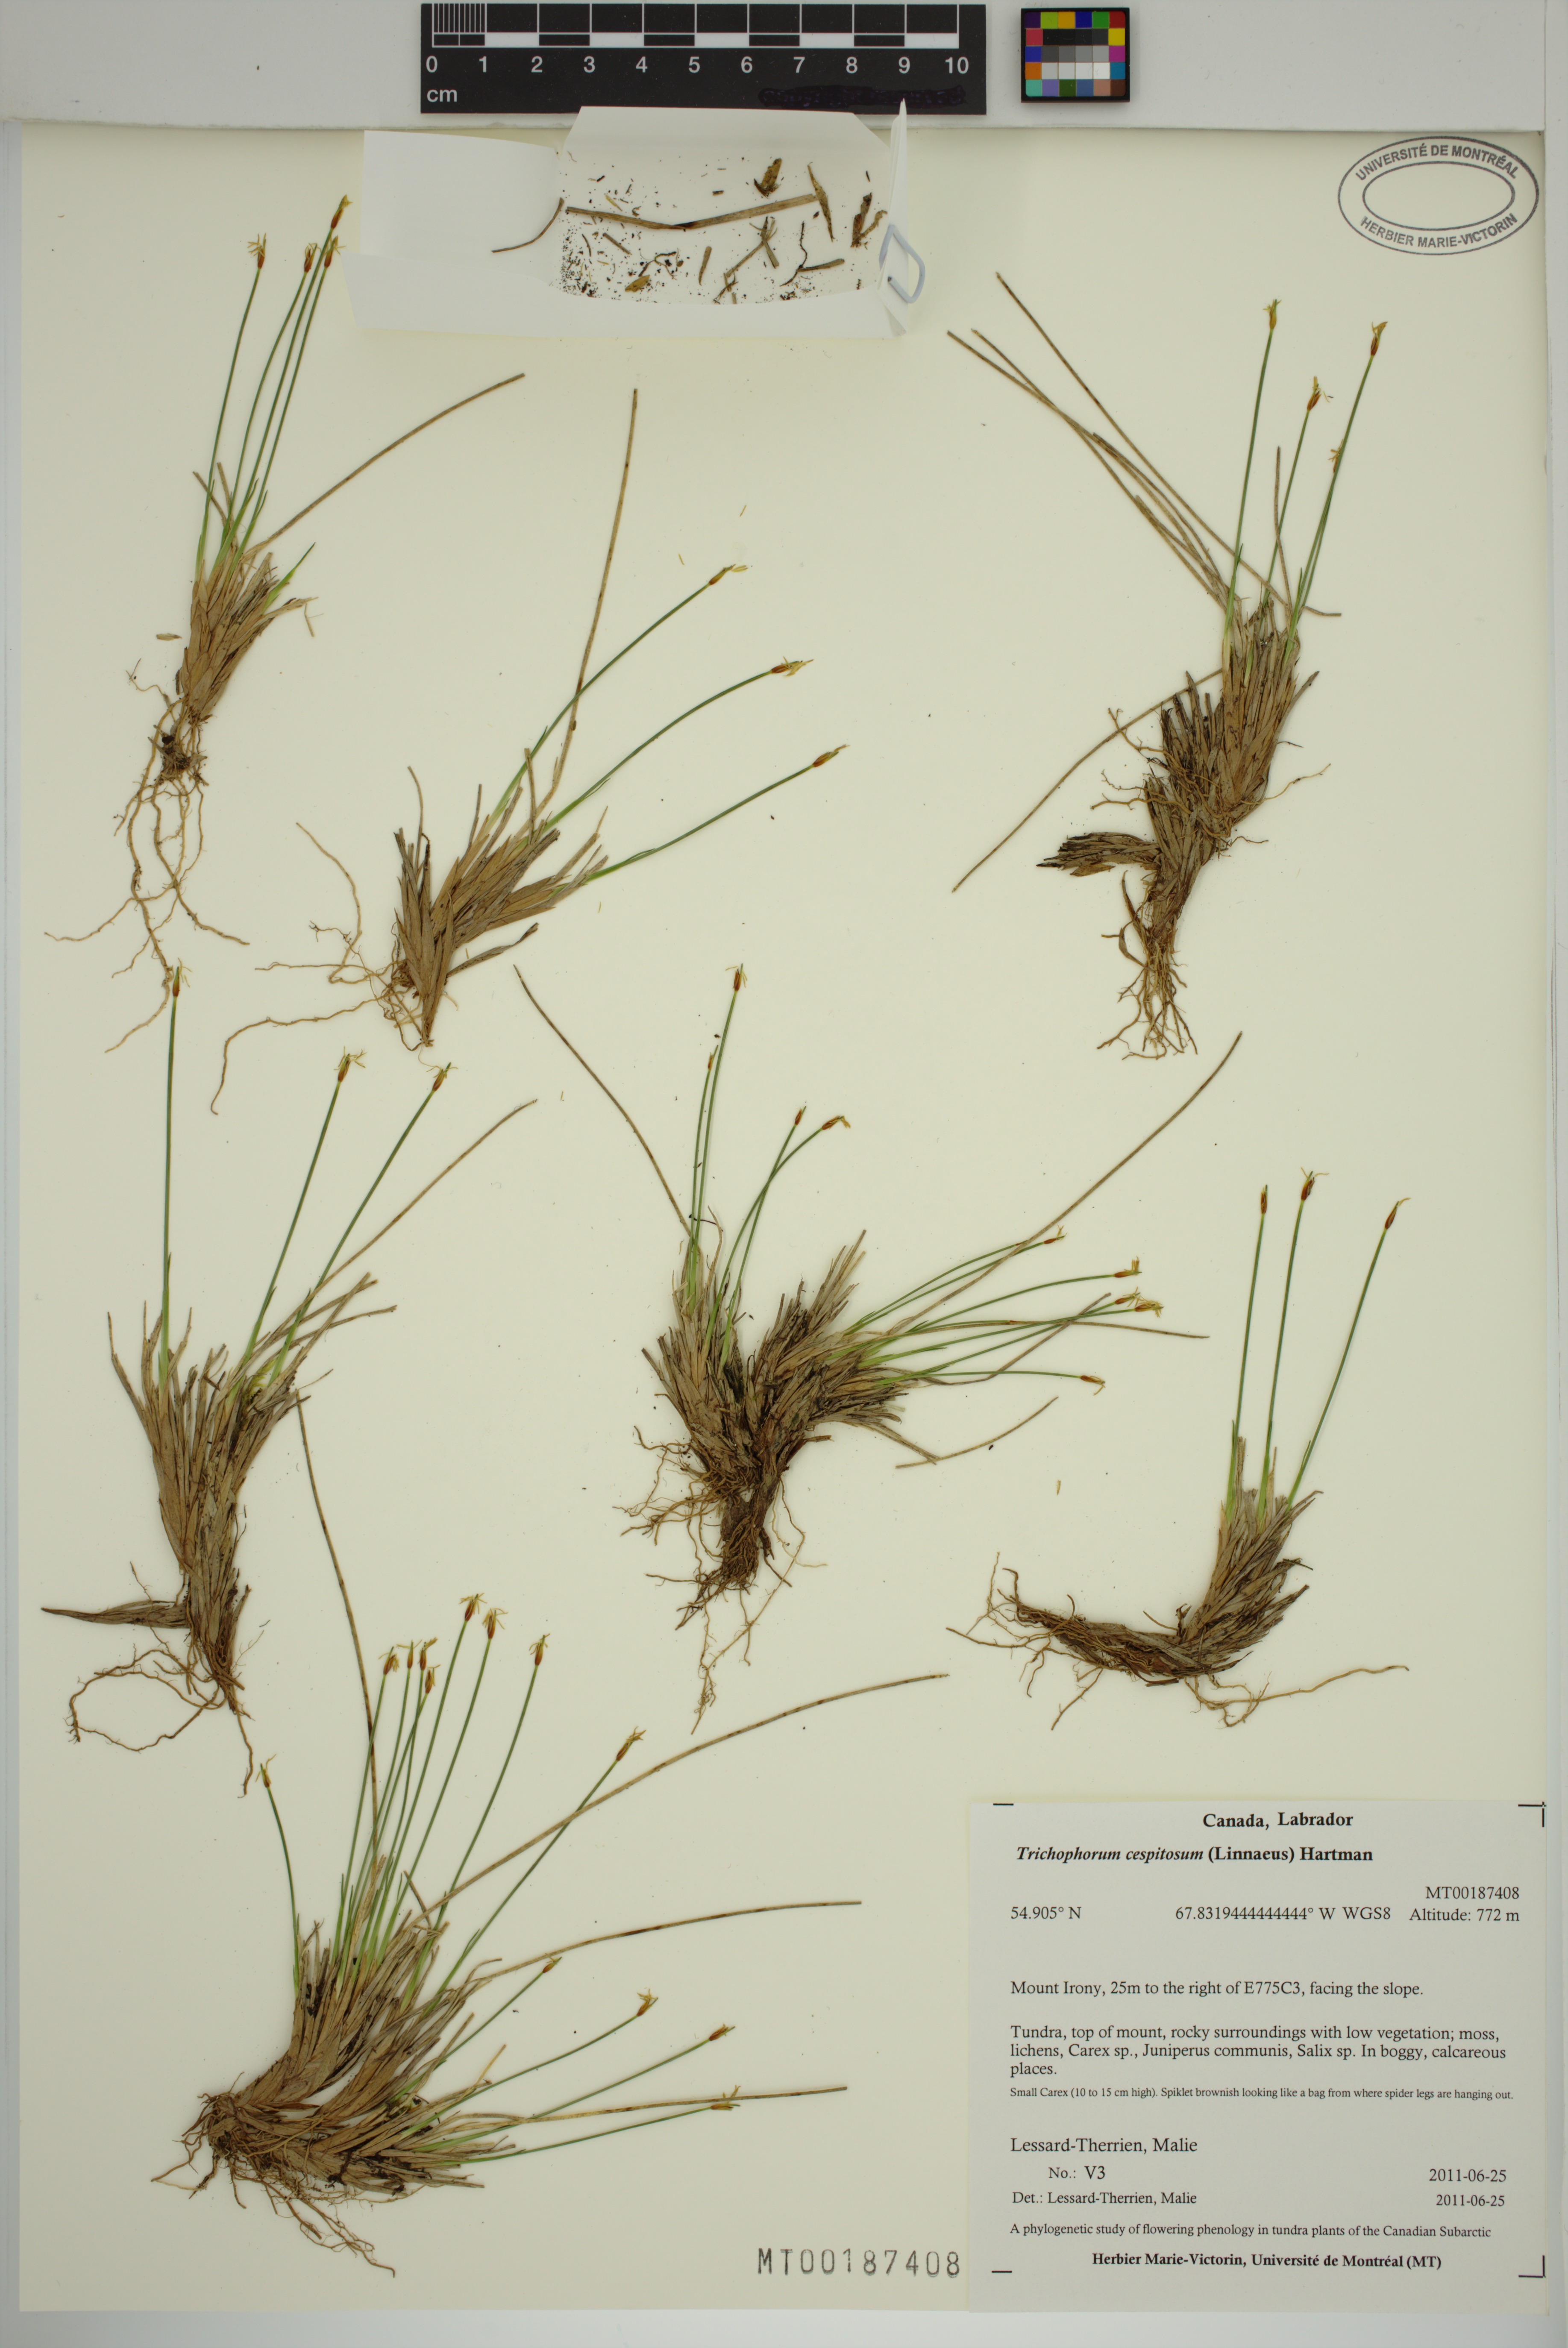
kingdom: Plantae
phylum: Tracheophyta
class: Liliopsida
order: Poales
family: Cyperaceae
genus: Trichophorum
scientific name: Trichophorum cespitosum
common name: Cespitose bulrush
